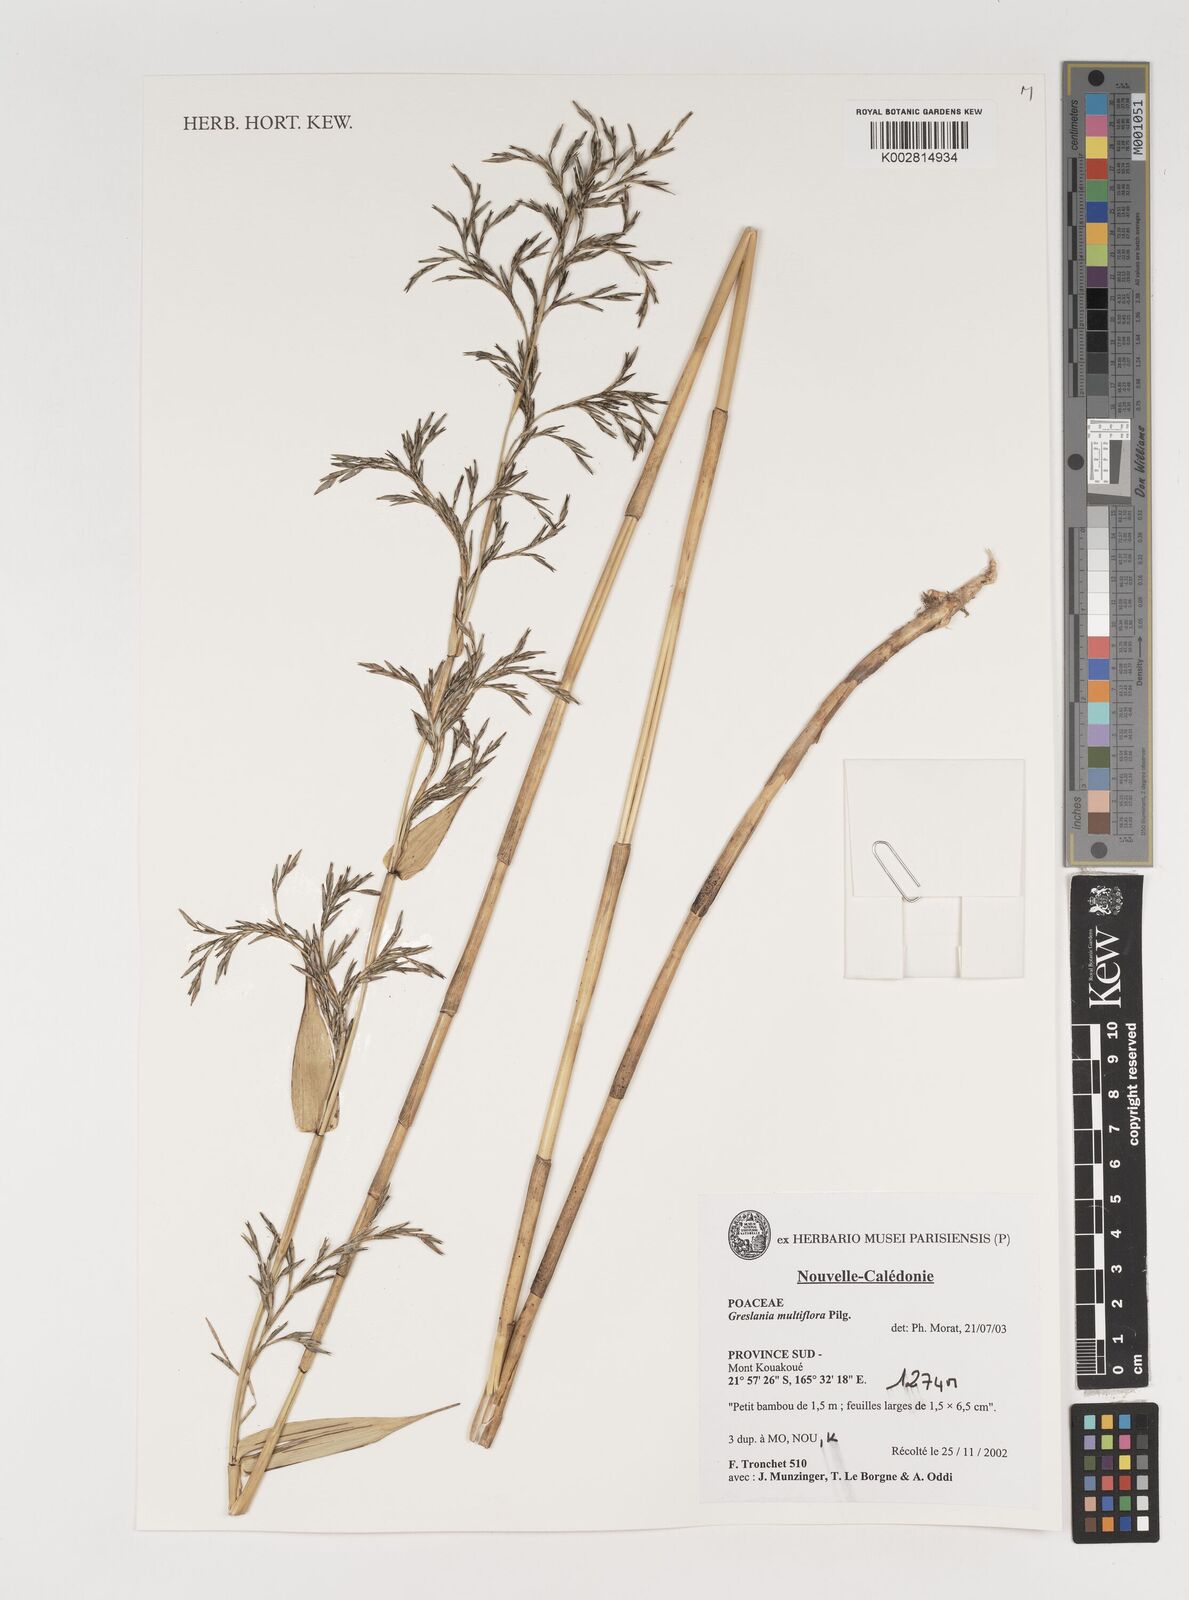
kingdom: Plantae
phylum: Tracheophyta
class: Liliopsida
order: Poales
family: Poaceae
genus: Greslania
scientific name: Greslania circinata
